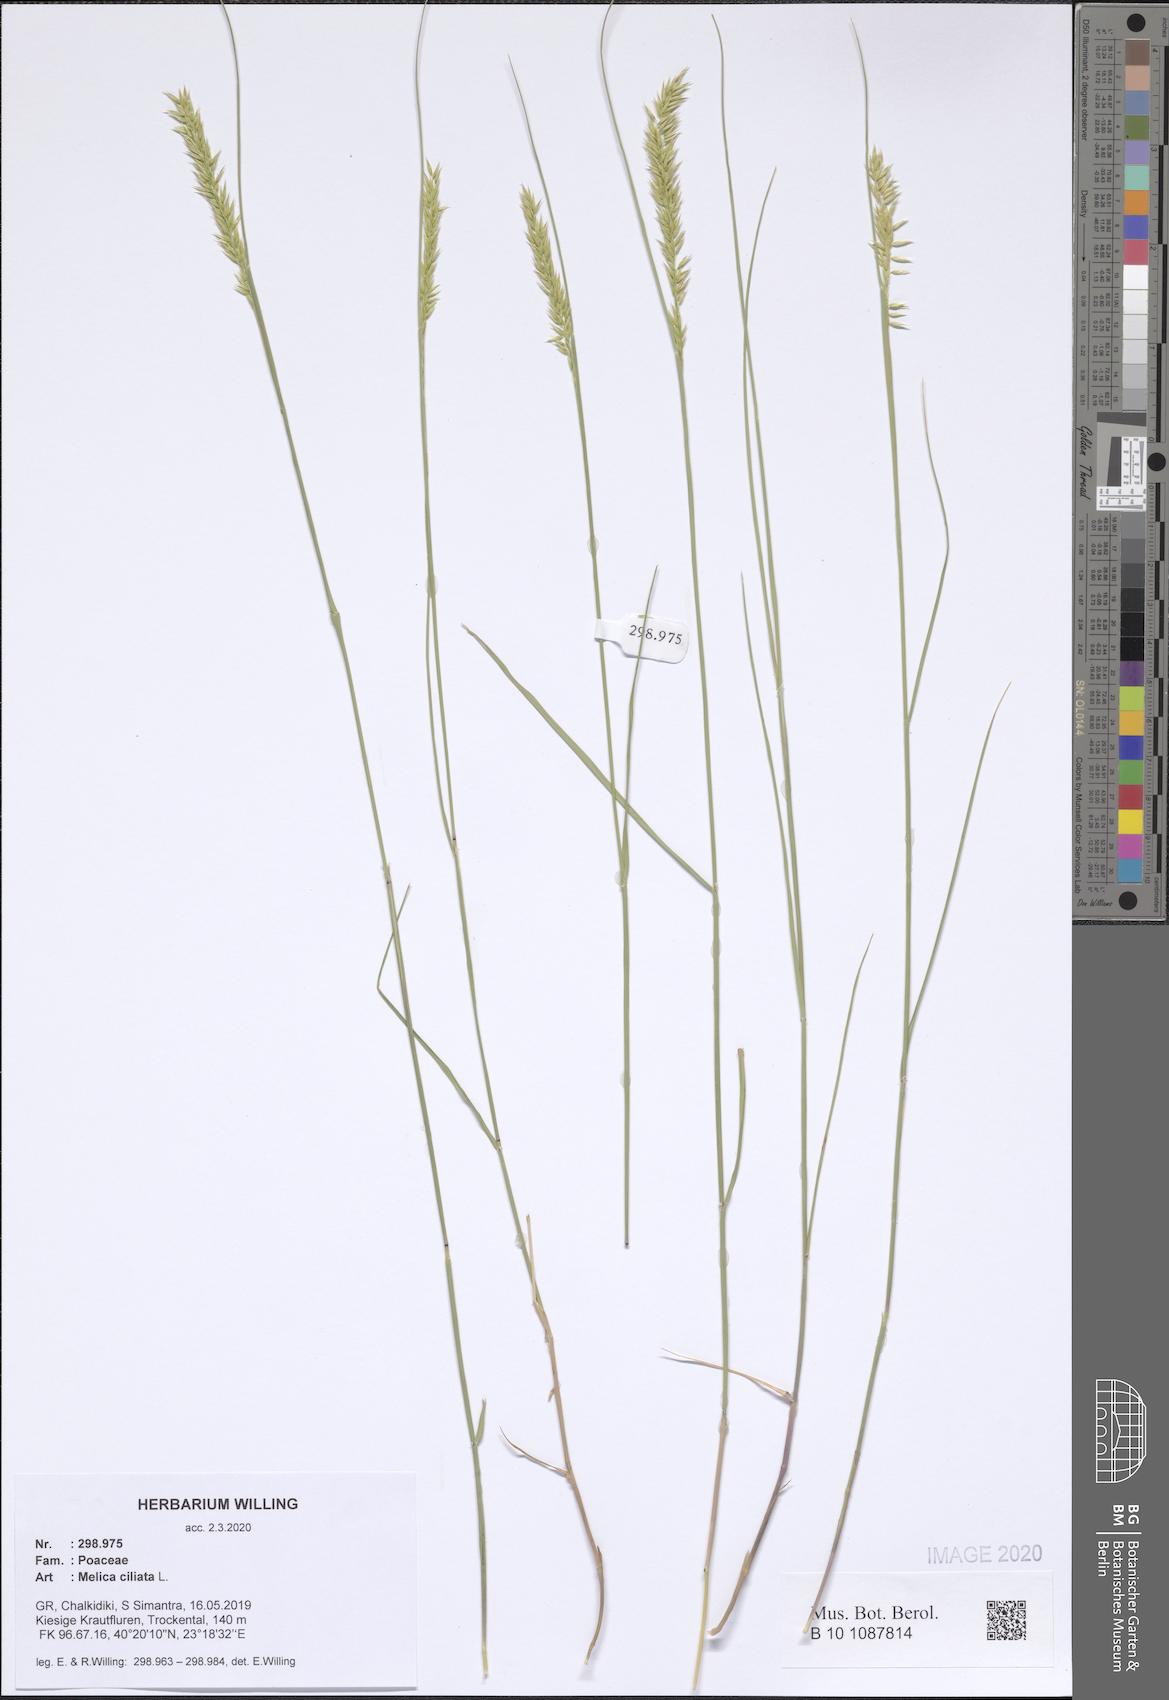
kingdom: Plantae
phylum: Tracheophyta
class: Liliopsida
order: Poales
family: Poaceae
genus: Melica
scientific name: Melica ciliata
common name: Hairy melicgrass
